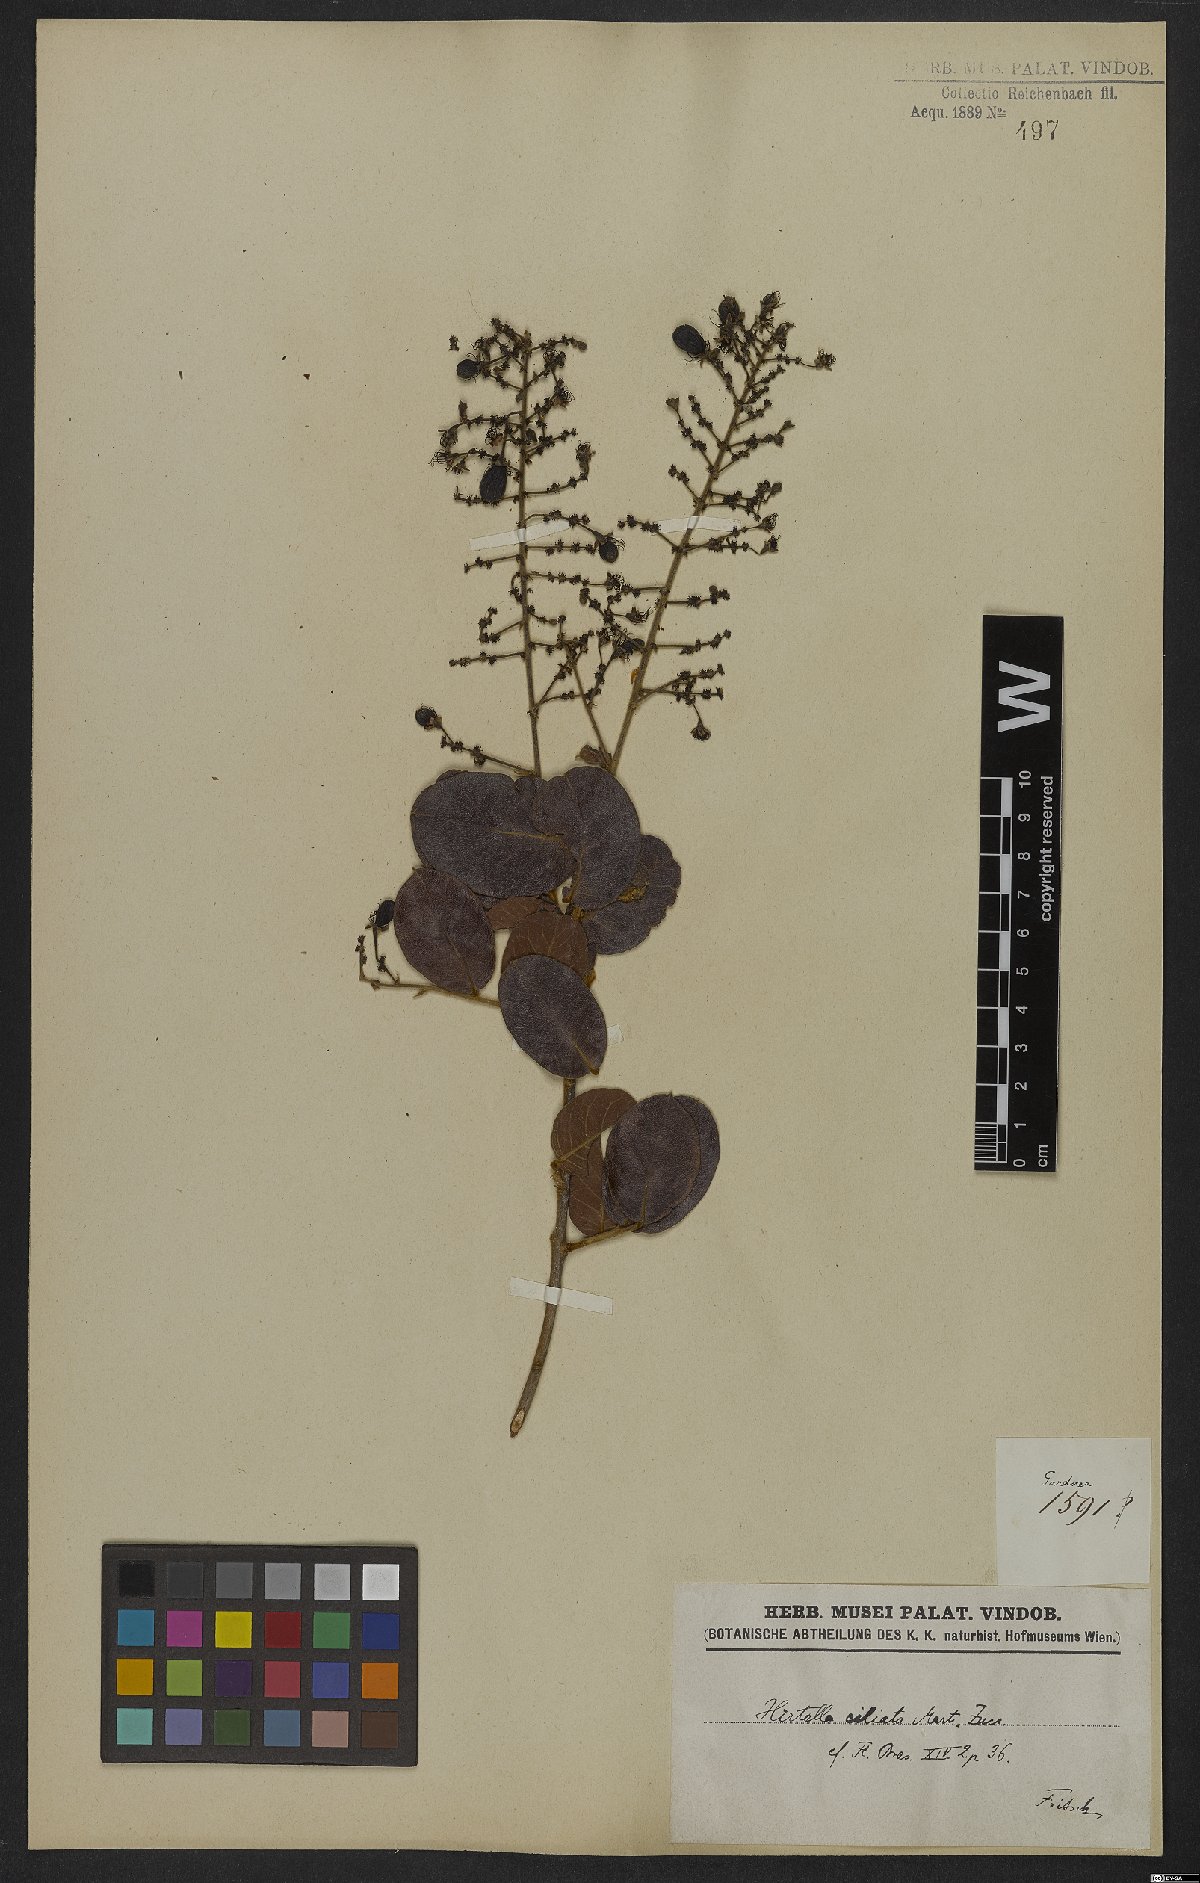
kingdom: Plantae
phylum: Tracheophyta
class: Magnoliopsida
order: Malpighiales
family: Chrysobalanaceae
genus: Hirtella
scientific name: Hirtella ciliata
